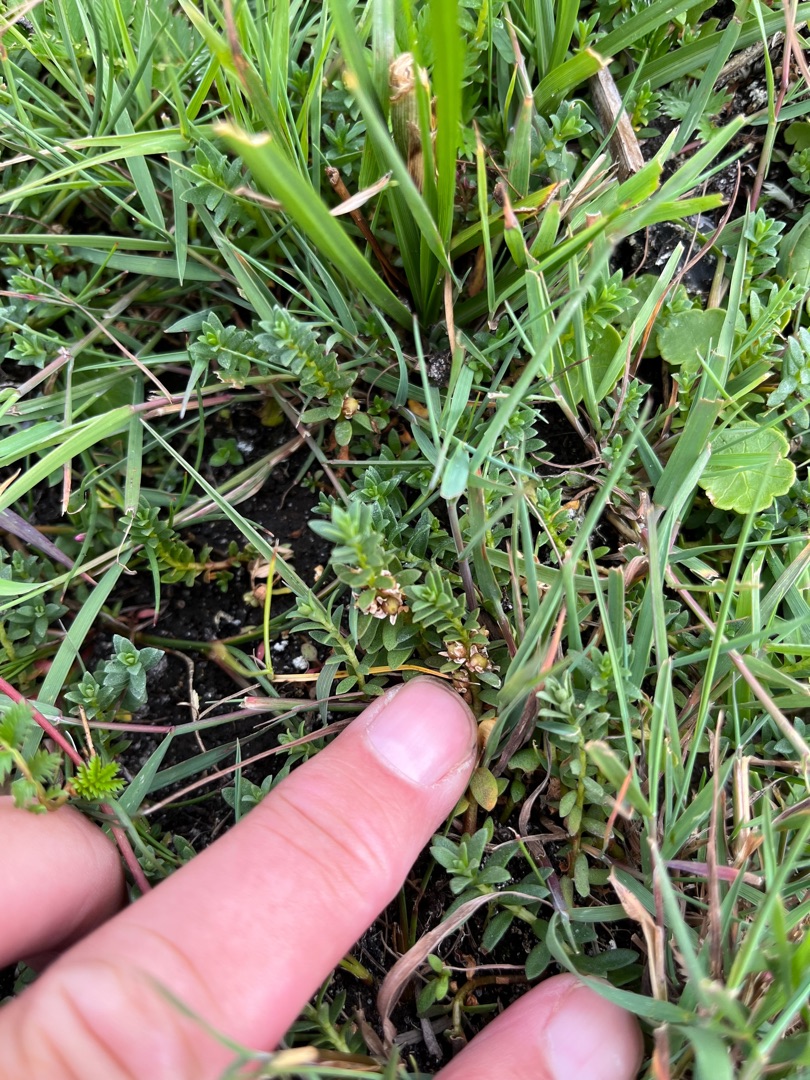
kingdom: Plantae
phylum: Tracheophyta
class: Magnoliopsida
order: Ericales
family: Primulaceae
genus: Lysimachia
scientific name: Lysimachia maritima
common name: Sandkryb
